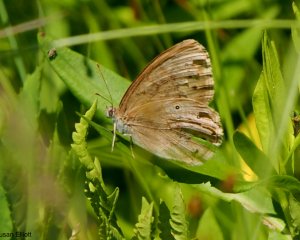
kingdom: Animalia
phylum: Arthropoda
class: Insecta
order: Lepidoptera
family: Nymphalidae
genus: Lethe
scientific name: Lethe eurydice
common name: Eyed Brown
